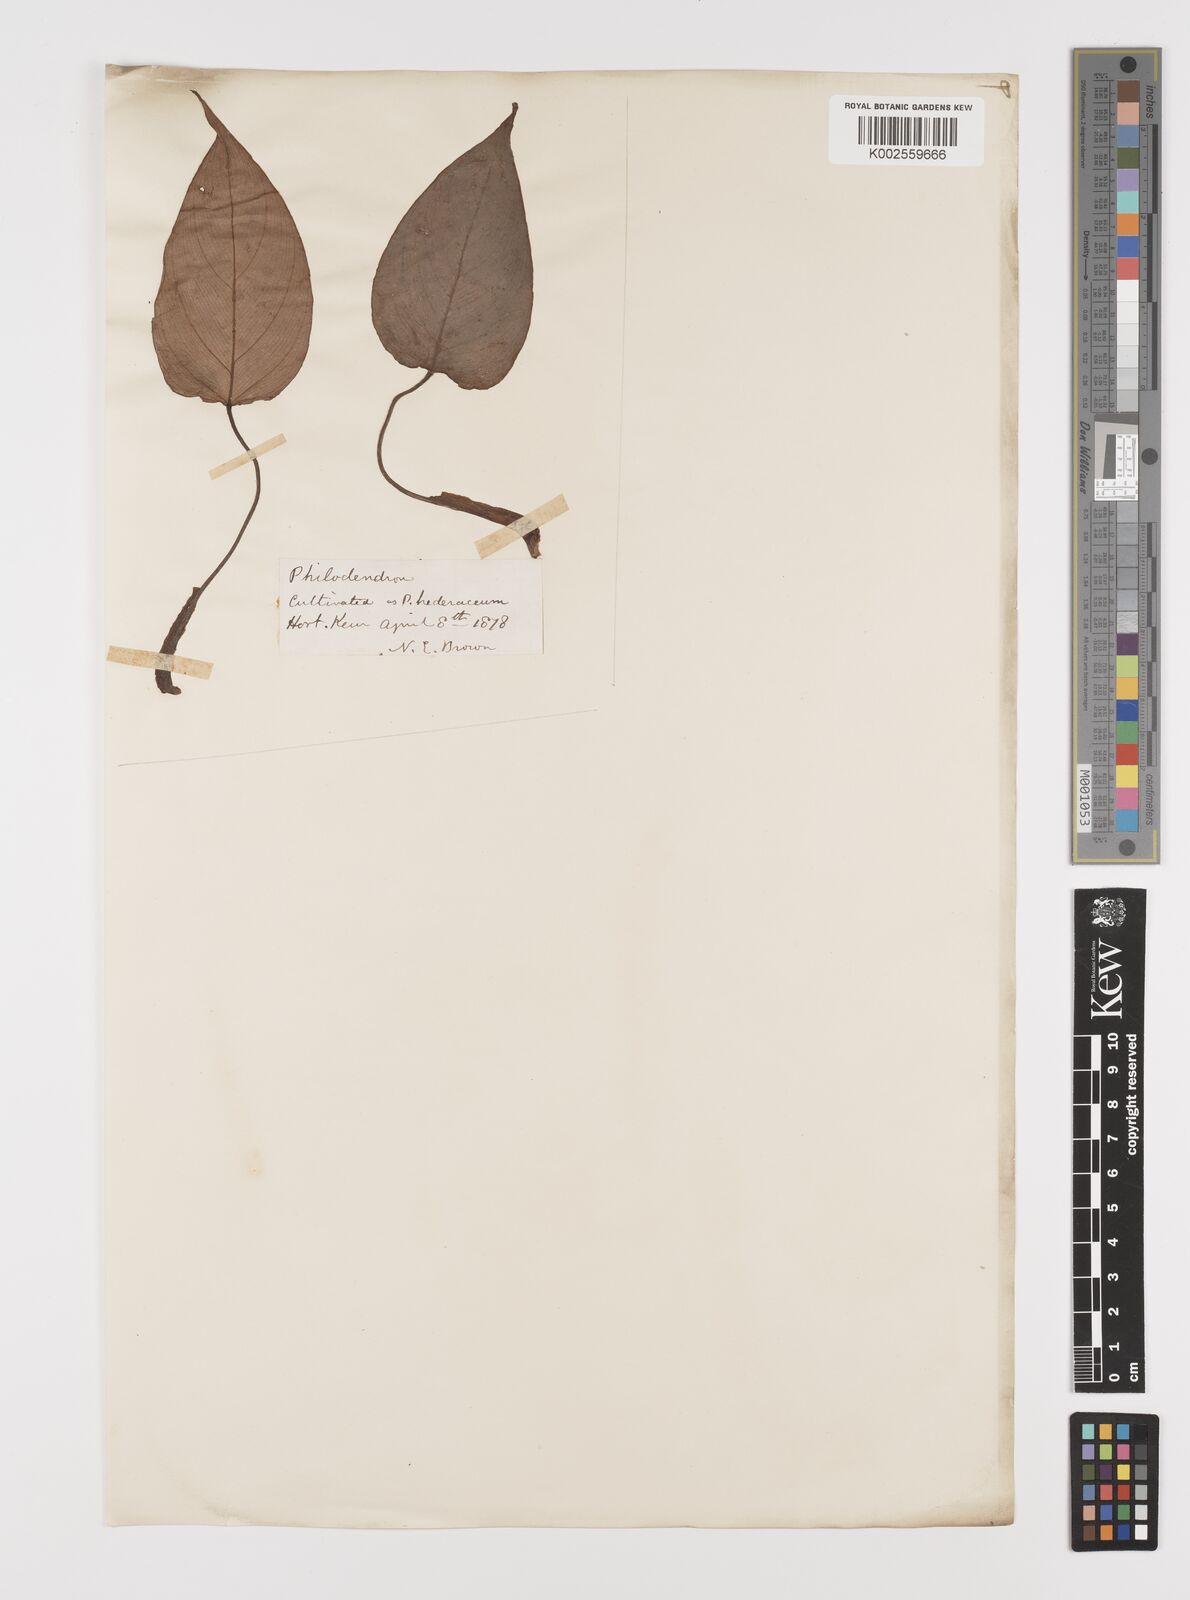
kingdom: Plantae
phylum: Tracheophyta
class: Liliopsida
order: Alismatales
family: Araceae
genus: Philodendron
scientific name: Philodendron burle-marxii
